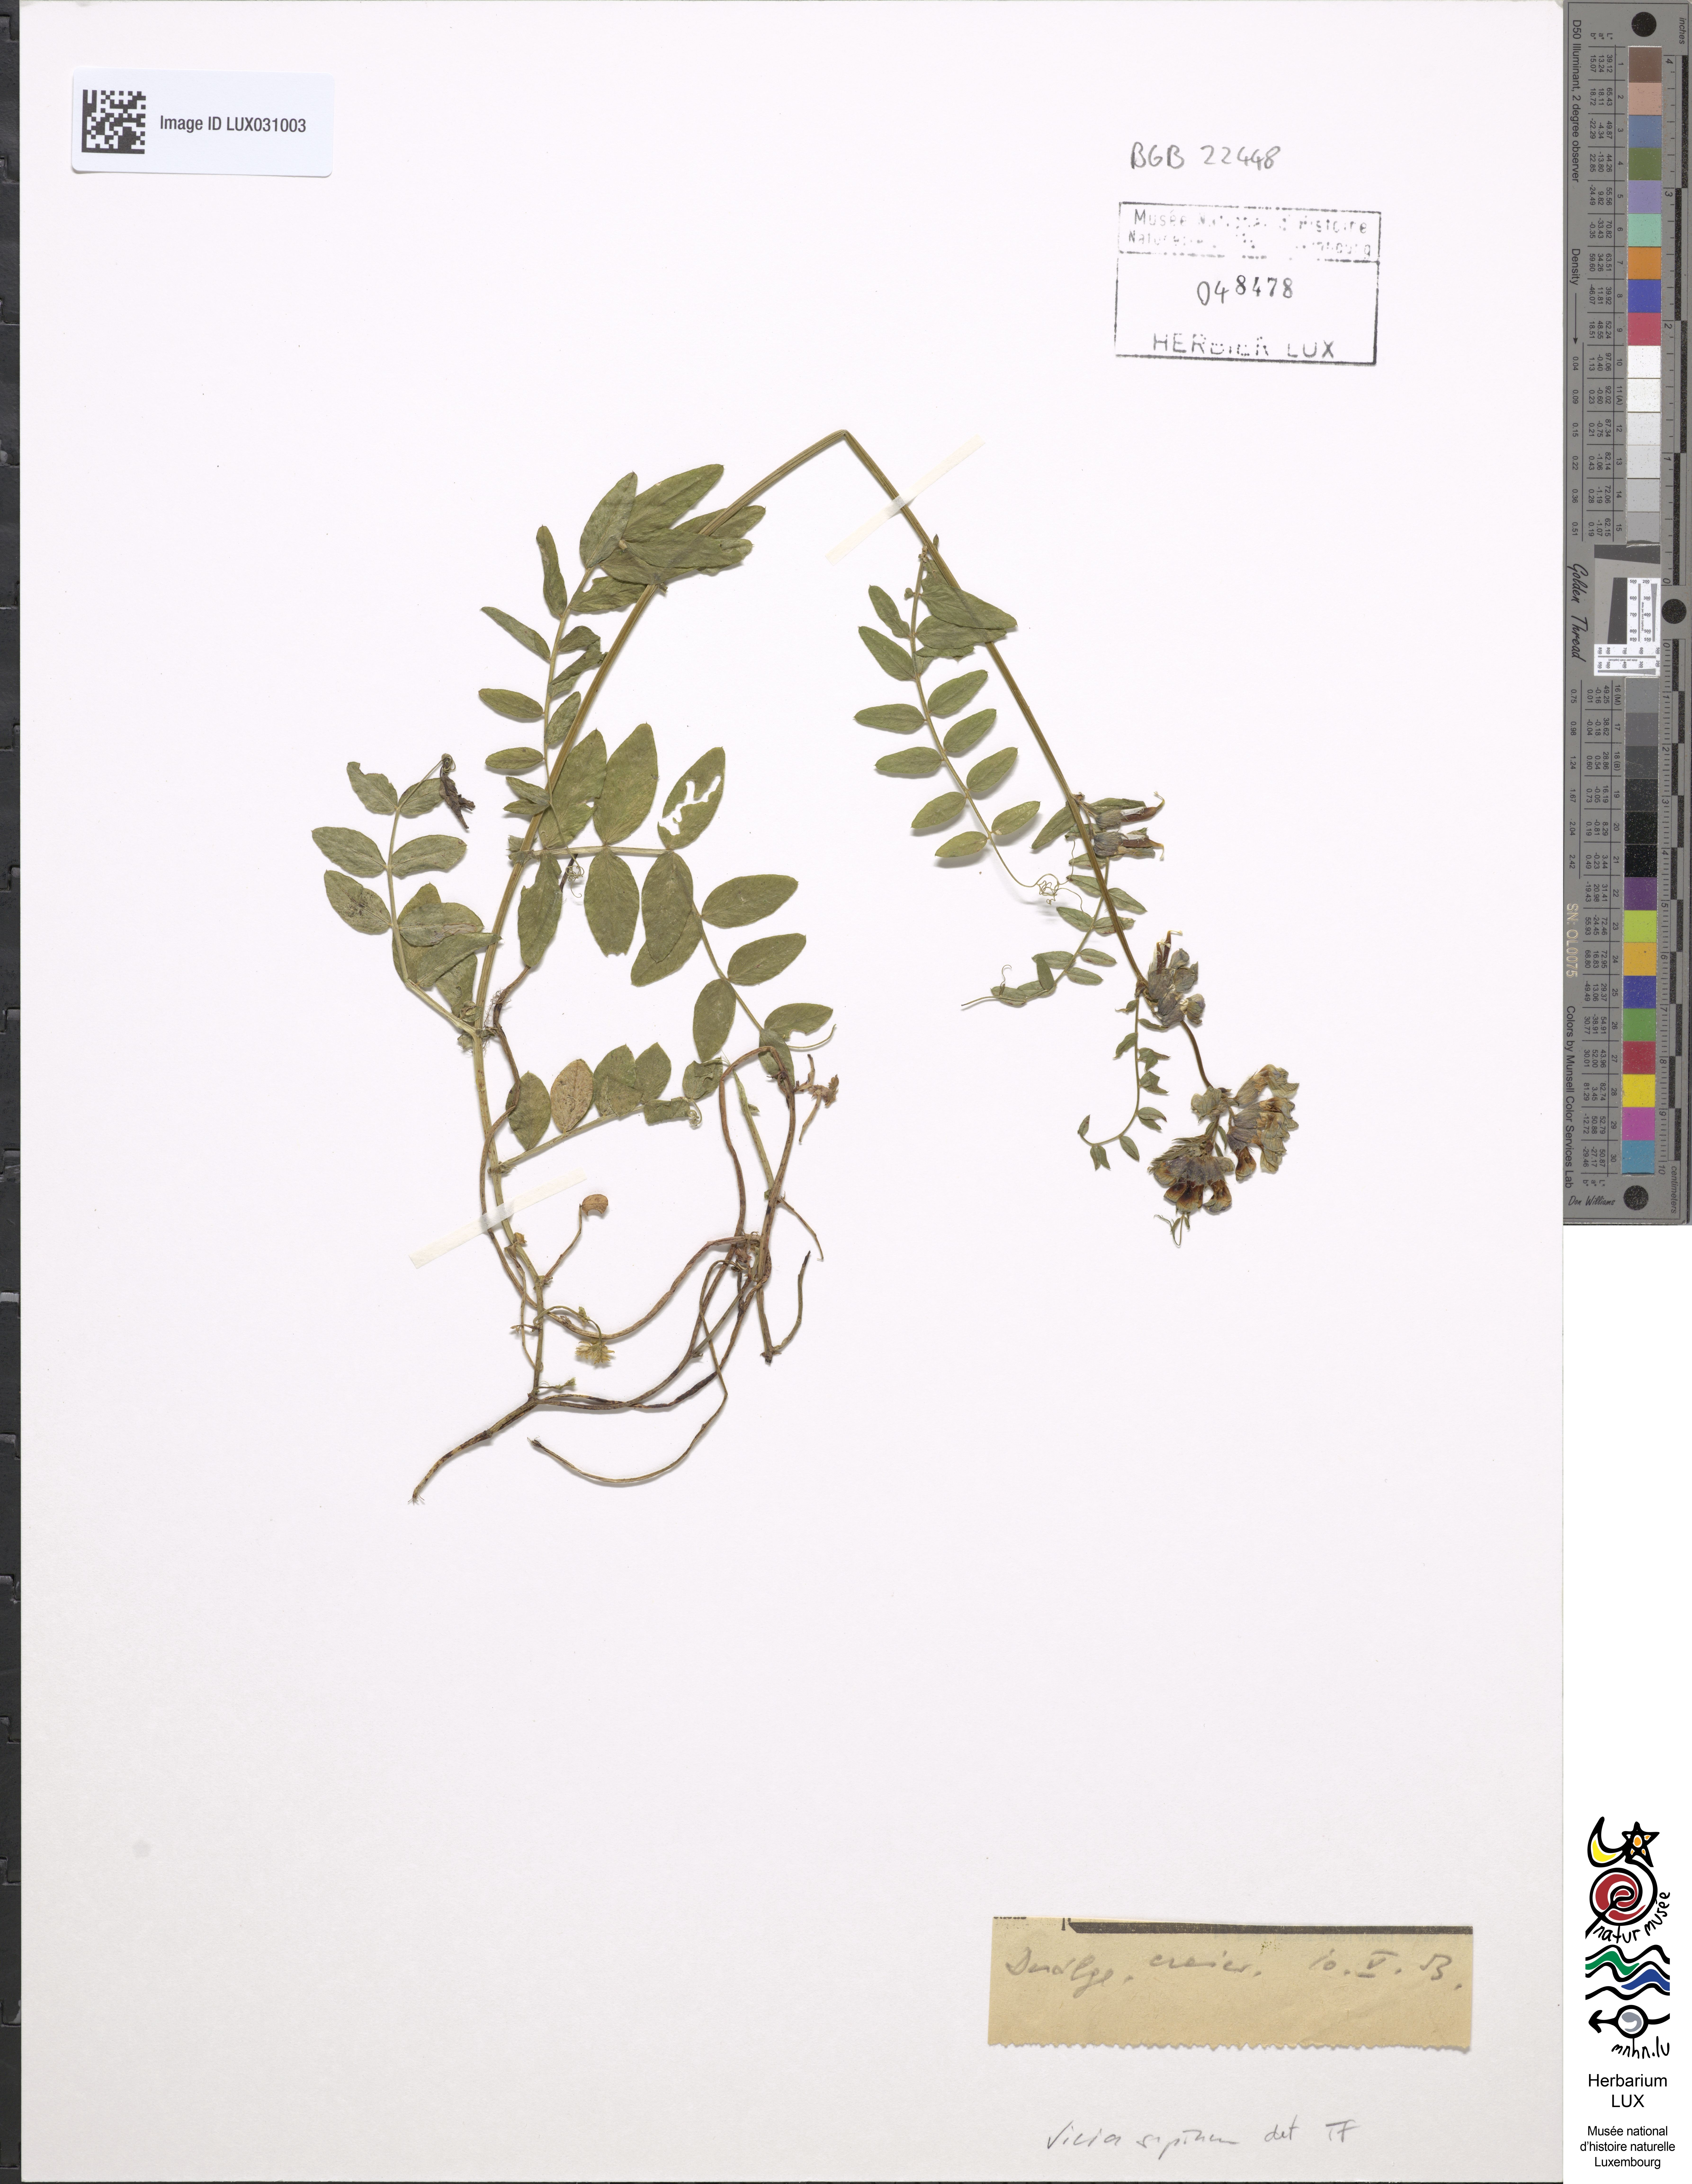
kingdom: Plantae
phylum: Tracheophyta
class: Magnoliopsida
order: Fabales
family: Fabaceae
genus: Vicia
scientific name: Vicia sepium
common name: Bush vetch
